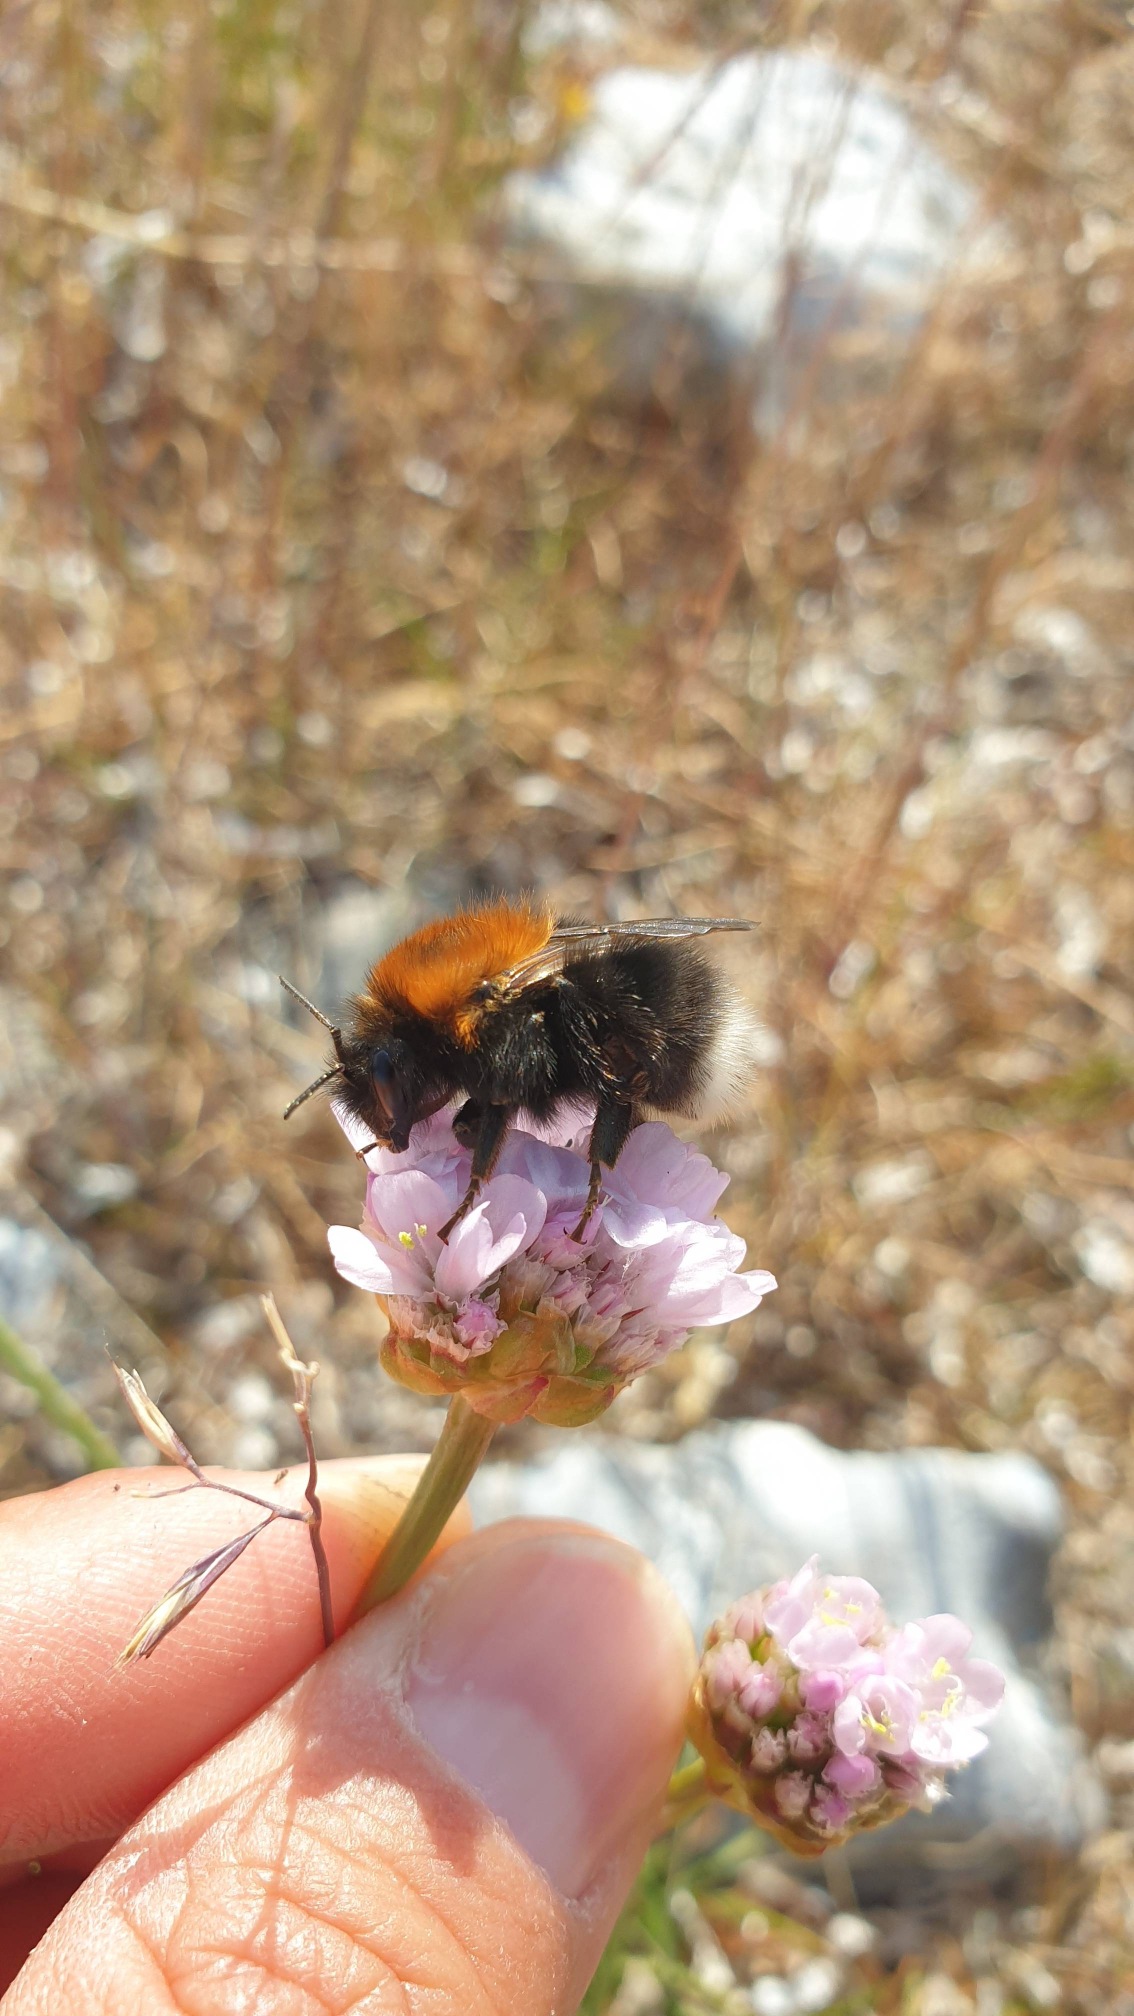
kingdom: Animalia
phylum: Arthropoda
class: Insecta
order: Hymenoptera
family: Apidae
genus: Bombus
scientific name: Bombus hypnorum
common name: Hushumle
